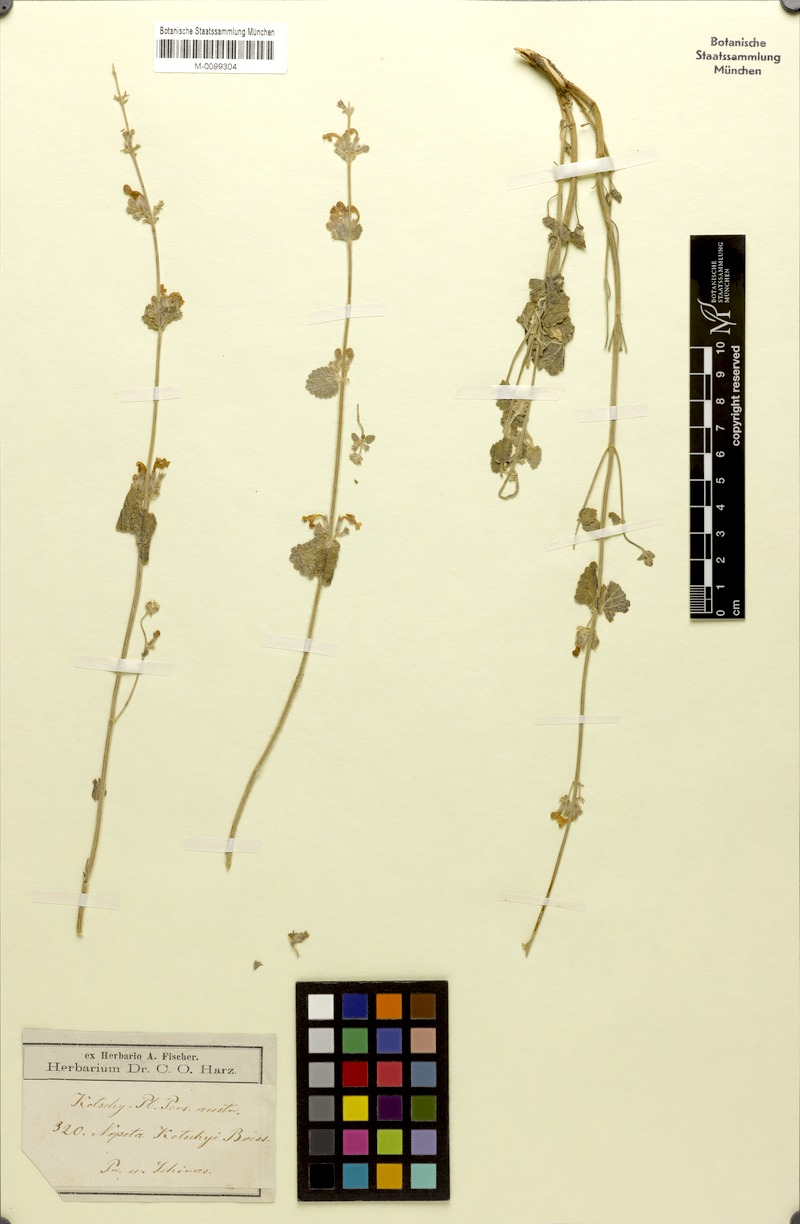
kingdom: Plantae
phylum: Tracheophyta
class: Magnoliopsida
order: Lamiales
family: Lamiaceae
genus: Nepeta
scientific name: Nepeta kotschyi
